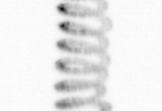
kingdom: Chromista
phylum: Ochrophyta
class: Bacillariophyceae
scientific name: Bacillariophyceae
